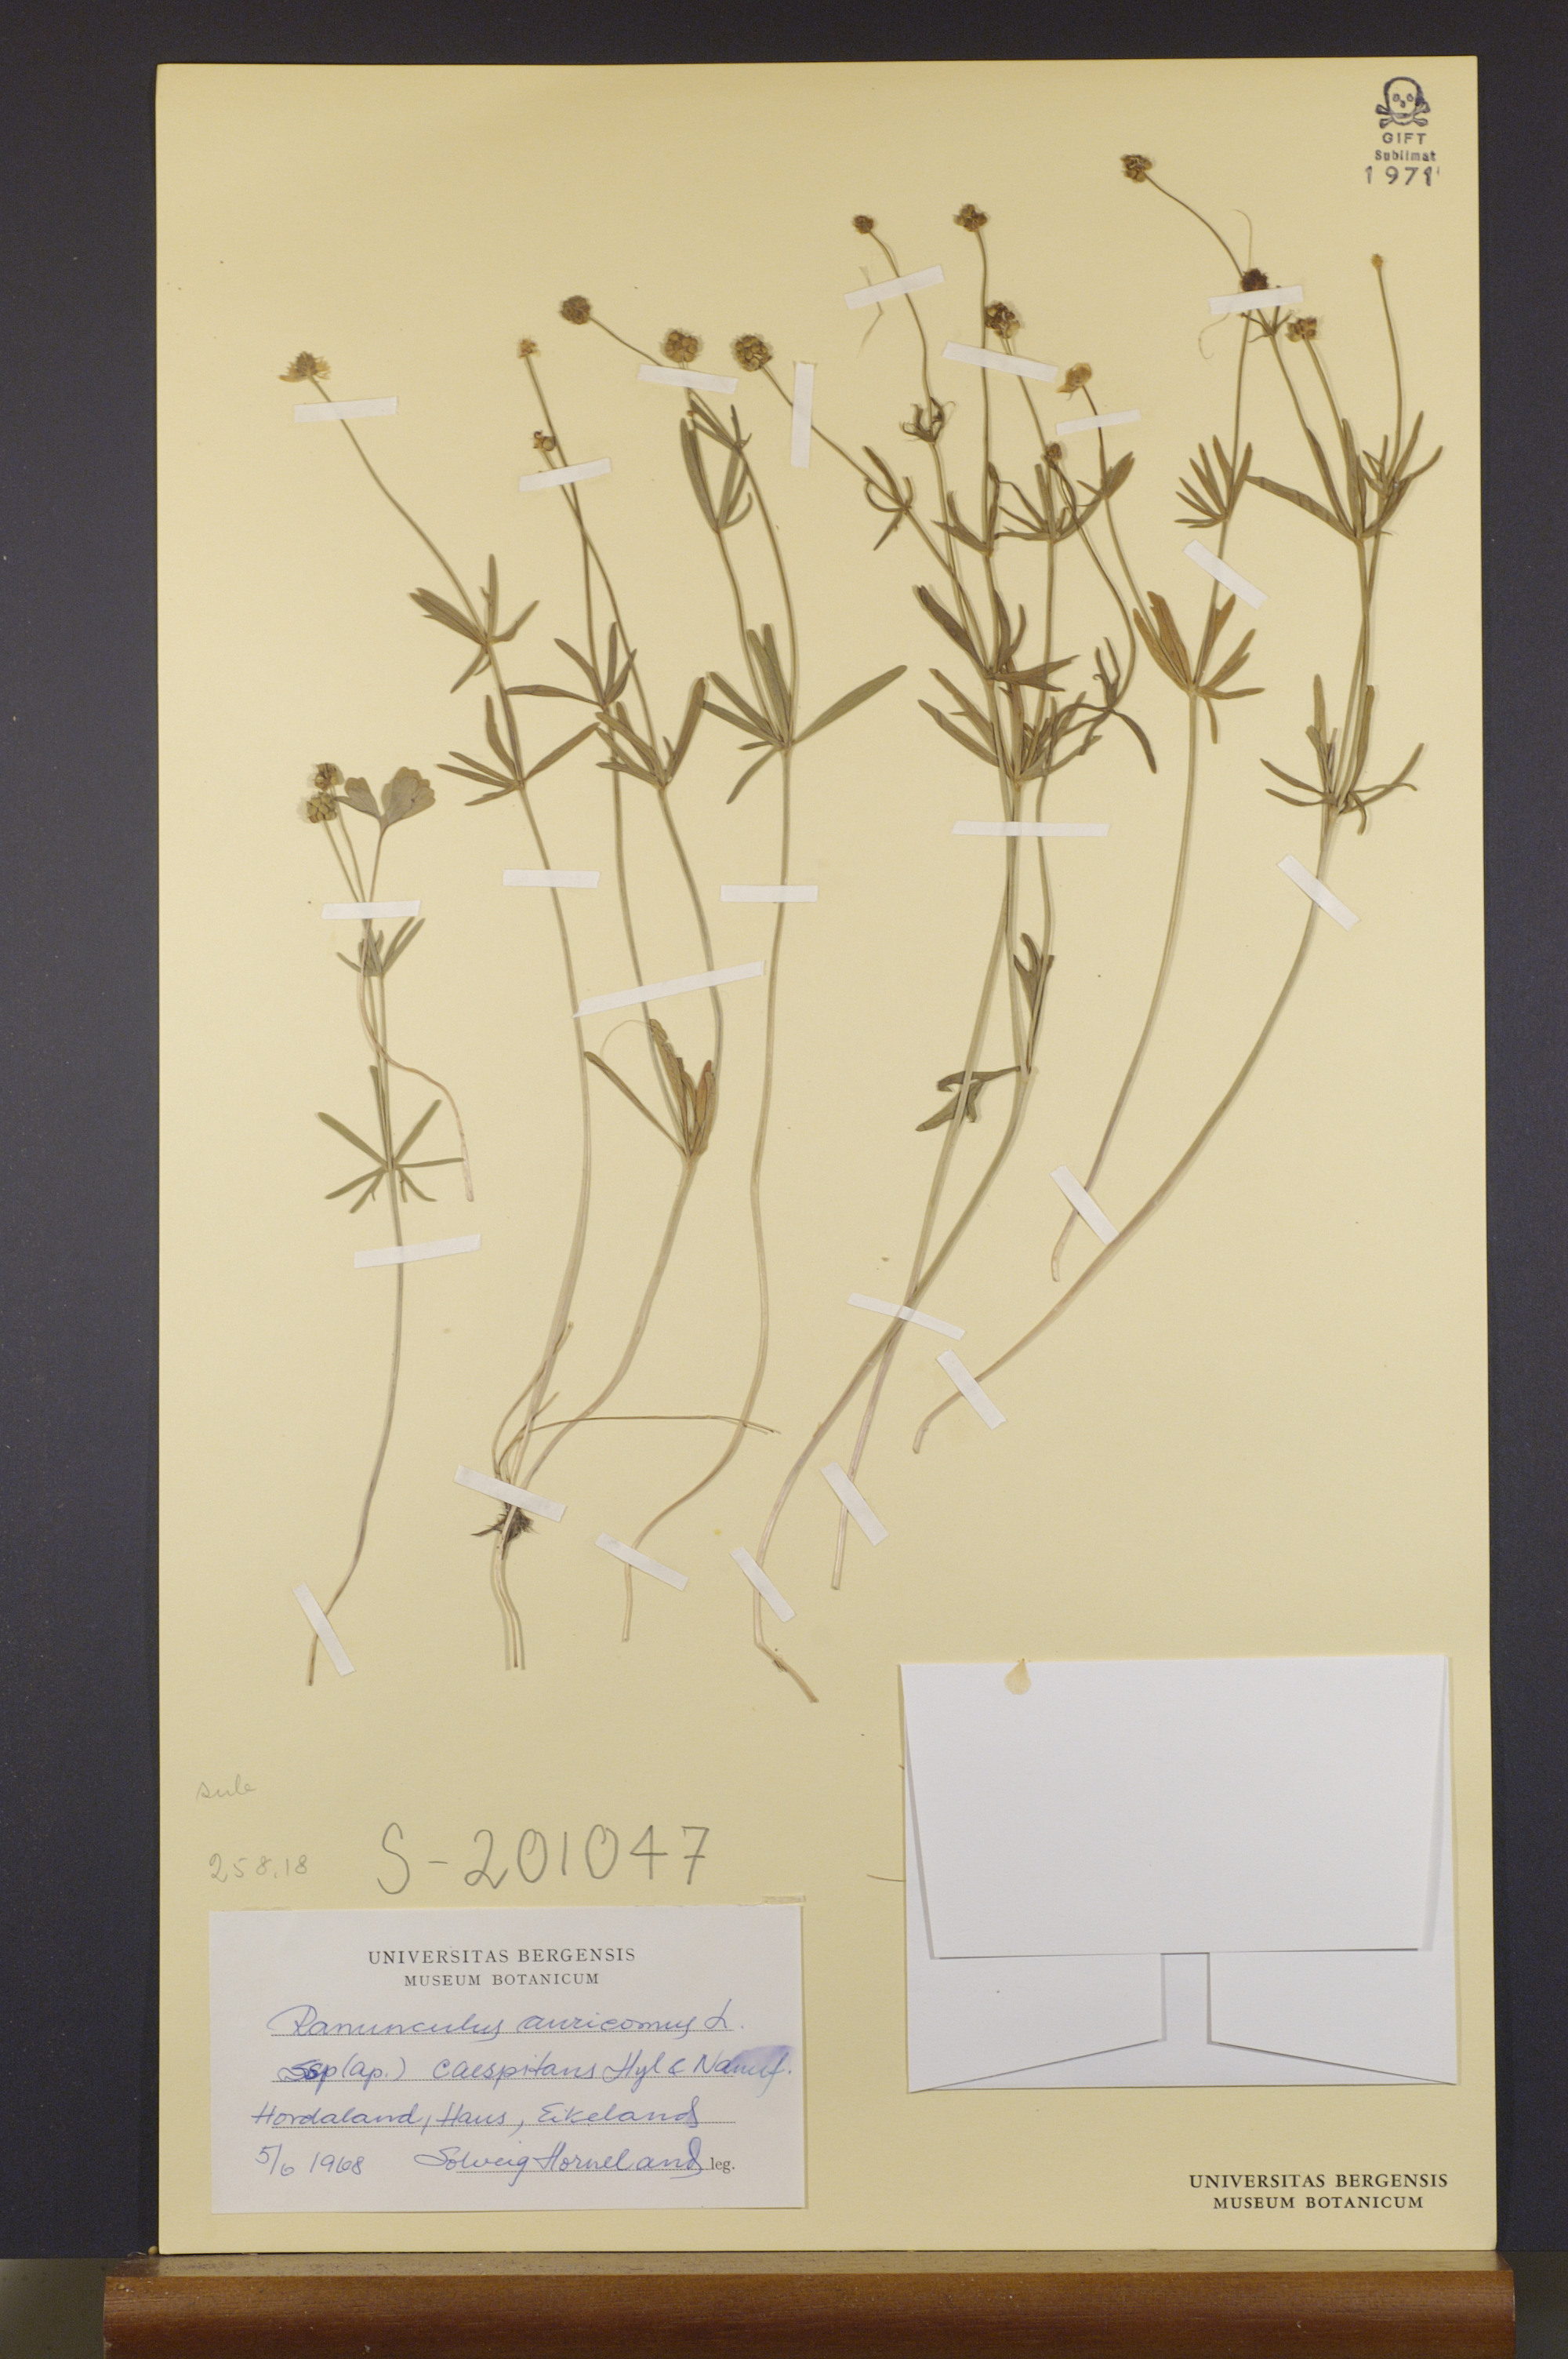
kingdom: Plantae
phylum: Tracheophyta
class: Magnoliopsida
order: Ranunculales
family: Ranunculaceae
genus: Ranunculus
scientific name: Ranunculus caespitans
